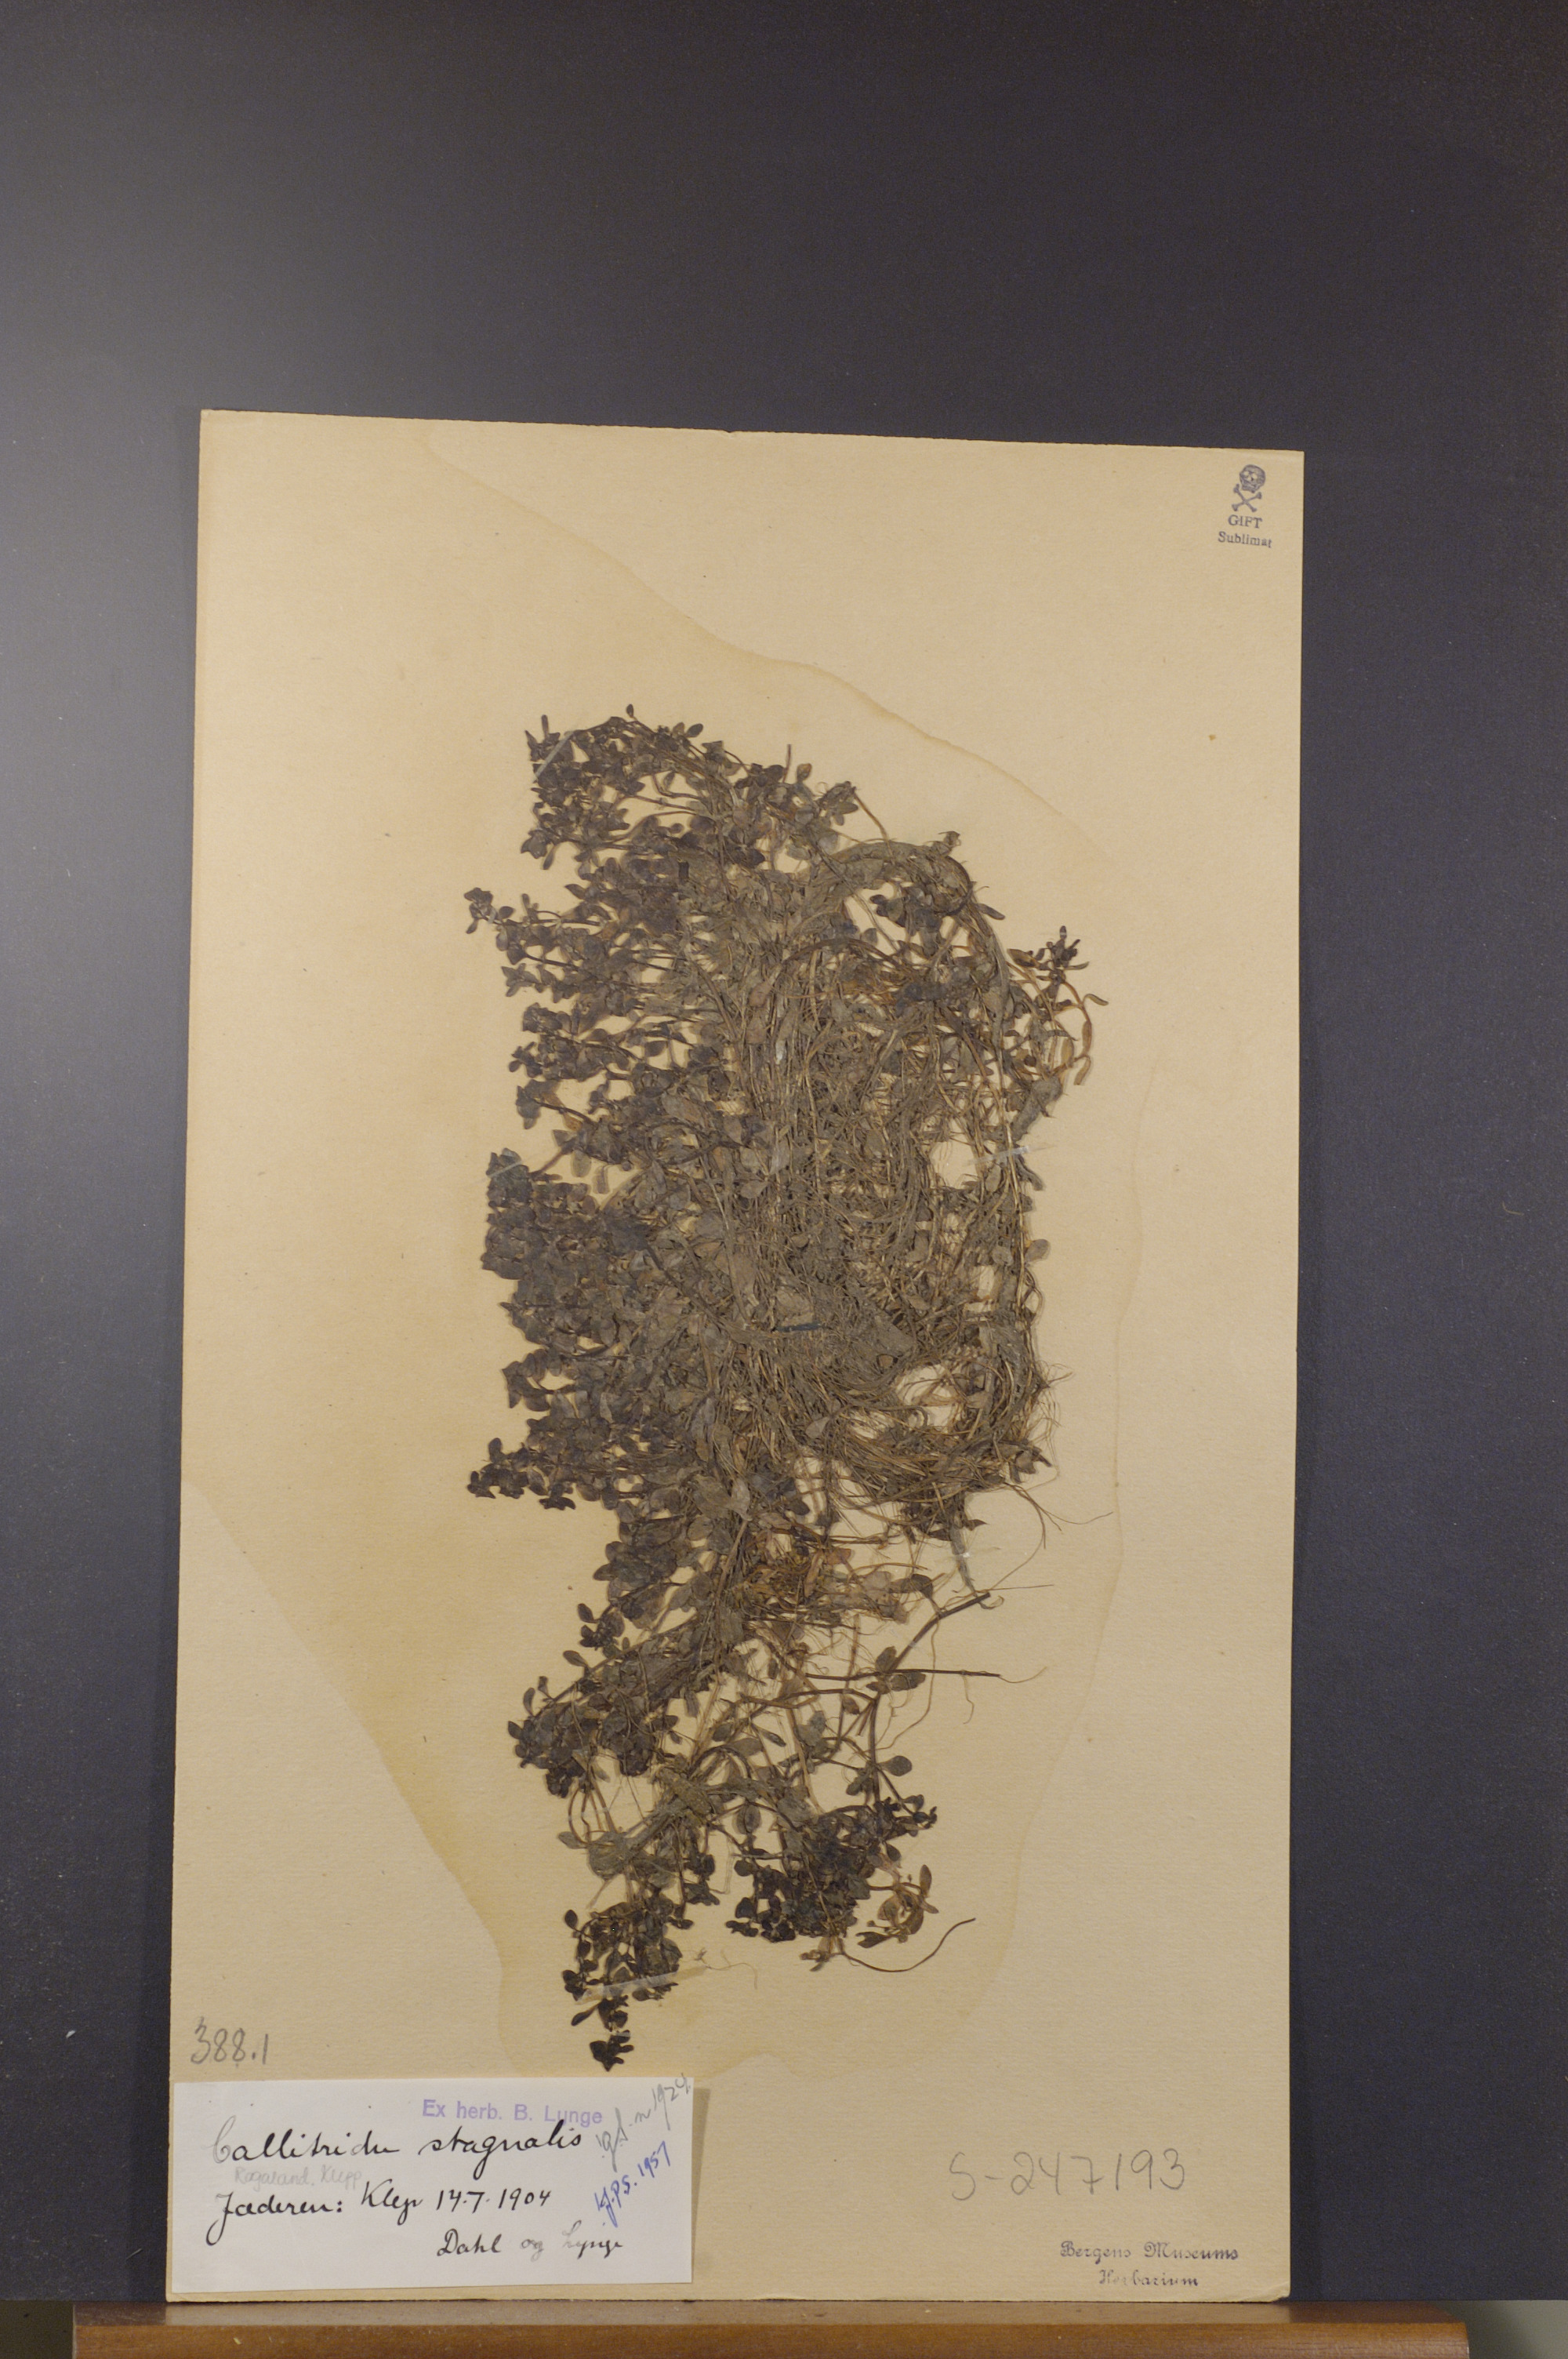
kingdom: Plantae
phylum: Tracheophyta
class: Magnoliopsida
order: Lamiales
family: Plantaginaceae
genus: Callitriche
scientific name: Callitriche stagnalis
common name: Common water-starwort
